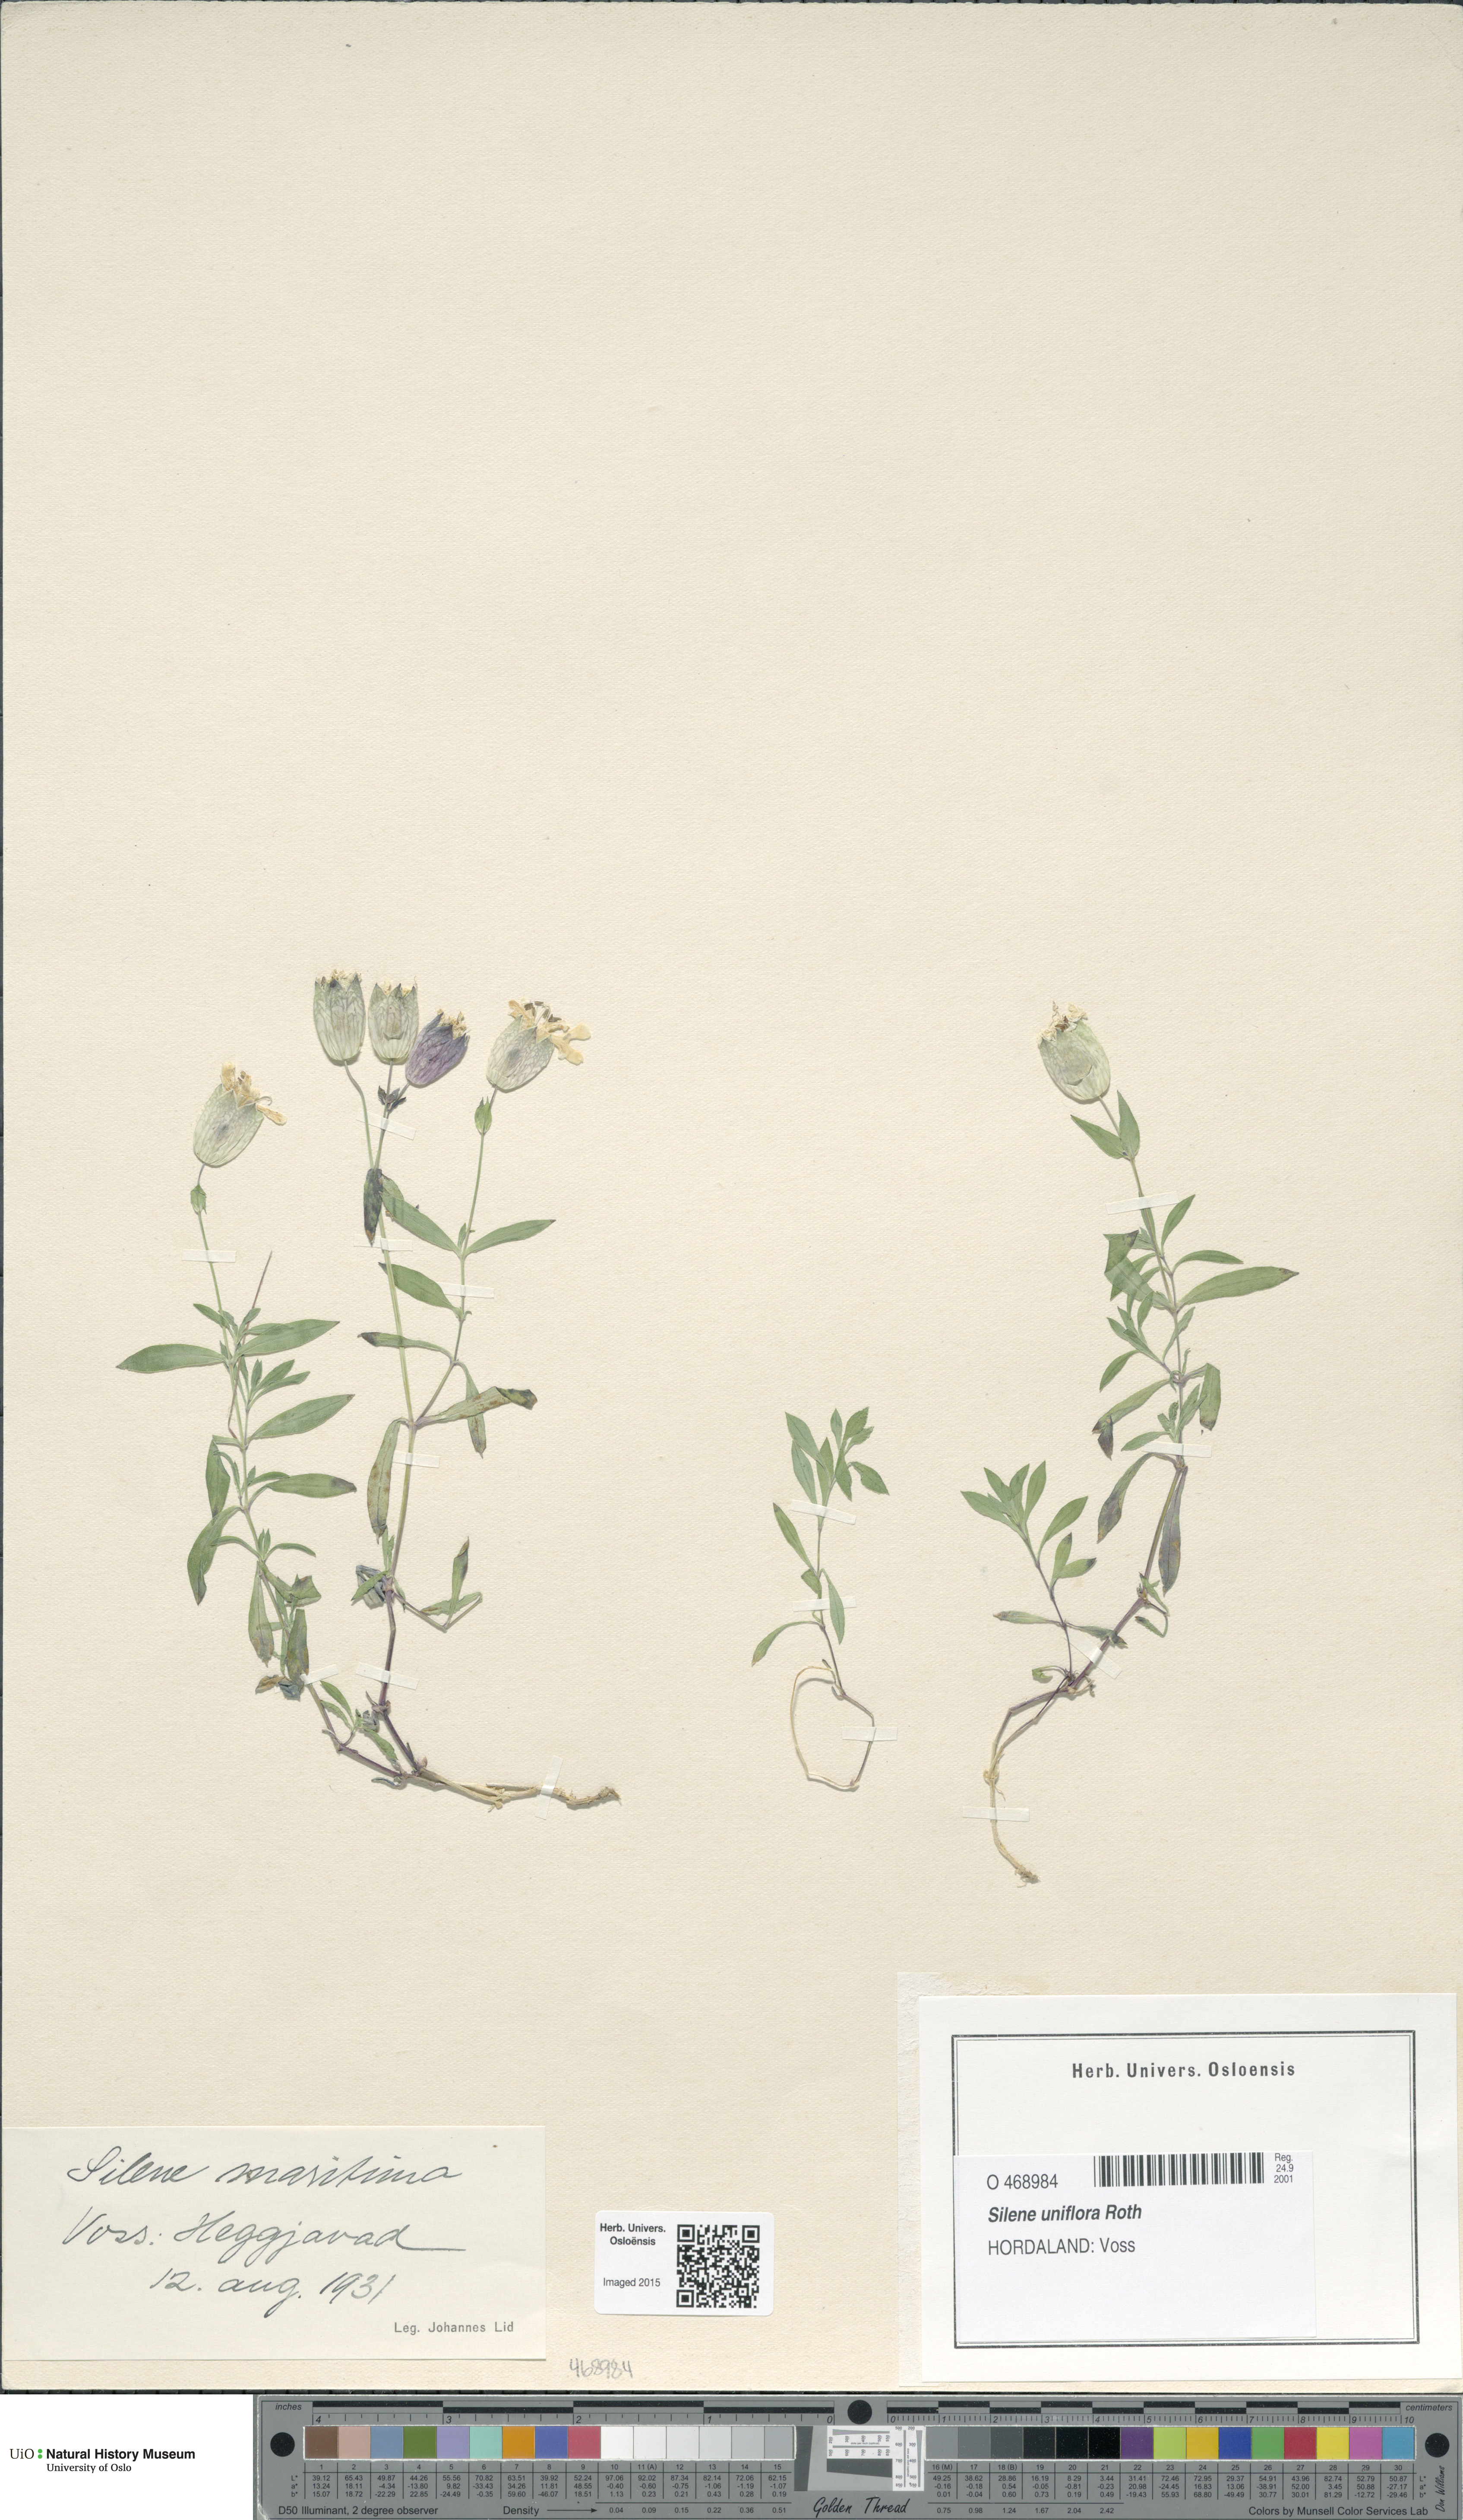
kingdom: Plantae
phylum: Tracheophyta
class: Magnoliopsida
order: Caryophyllales
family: Caryophyllaceae
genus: Silene
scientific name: Silene uniflora
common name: Sea campion
